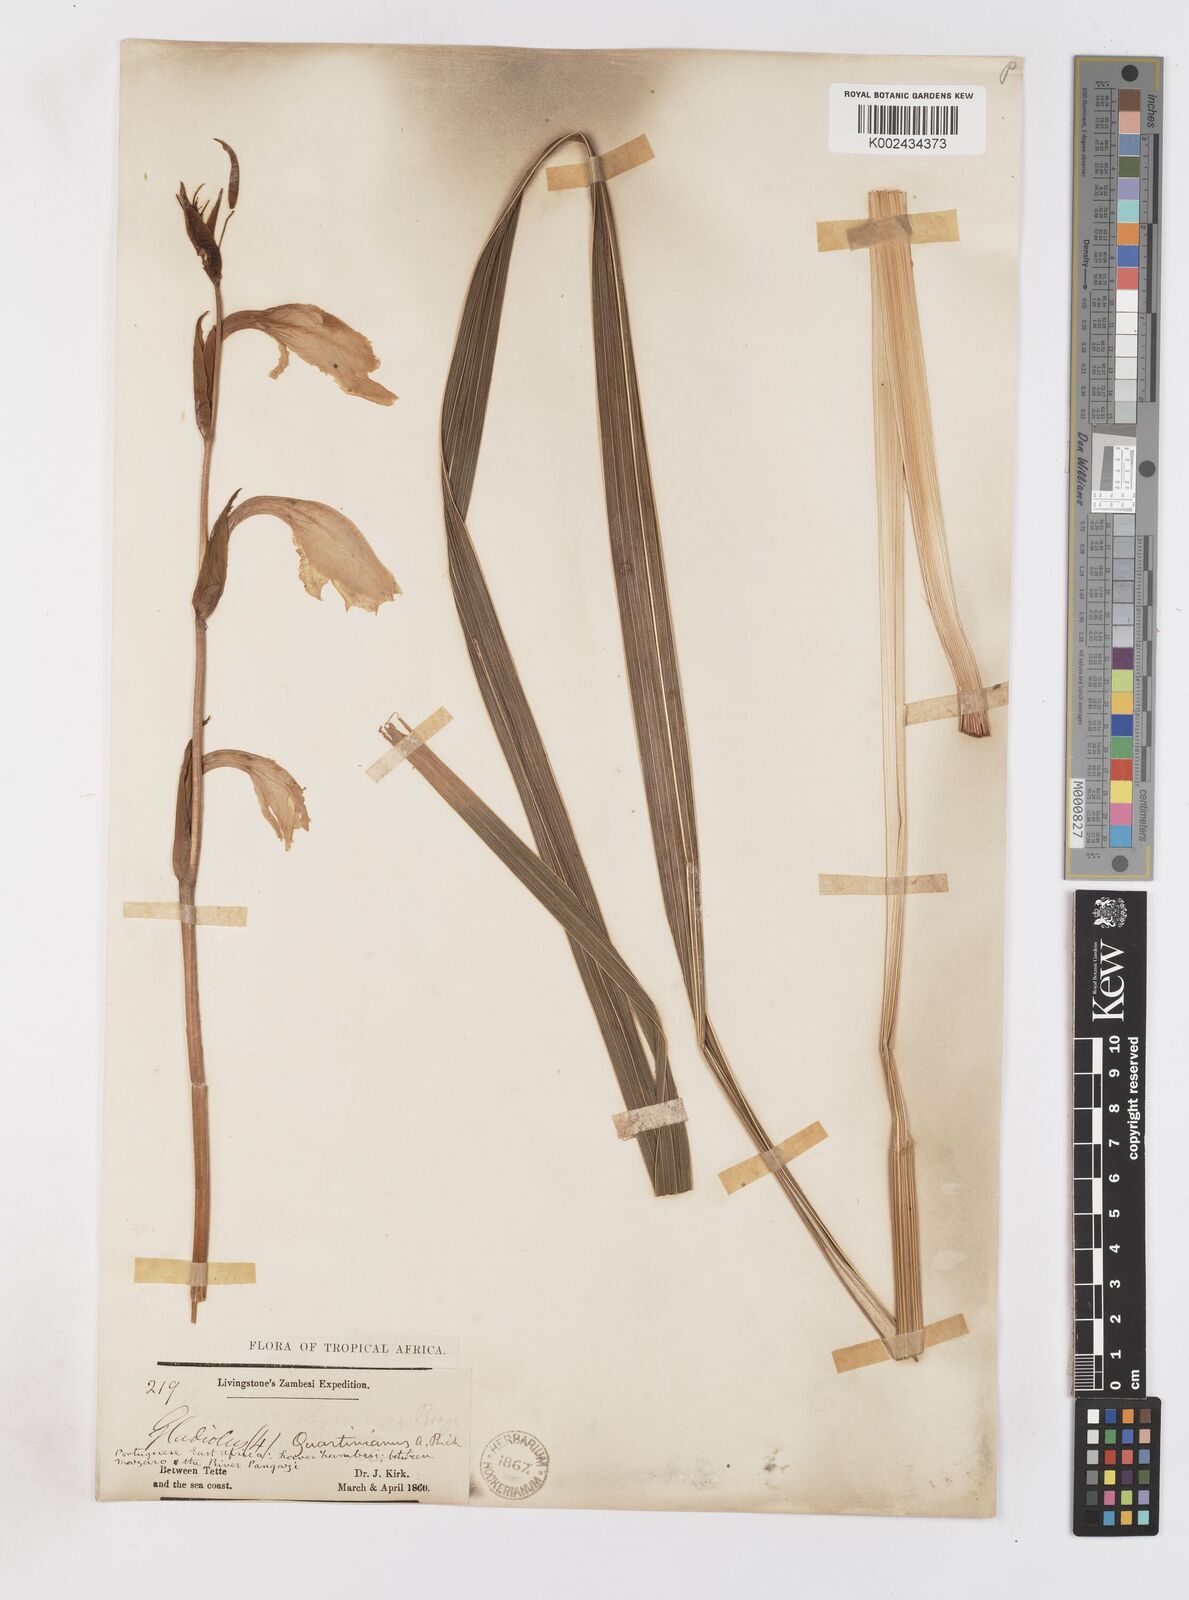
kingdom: Plantae
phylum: Tracheophyta
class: Liliopsida
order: Asparagales
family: Iridaceae
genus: Gladiolus
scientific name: Gladiolus dalenii
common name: Cornflag
